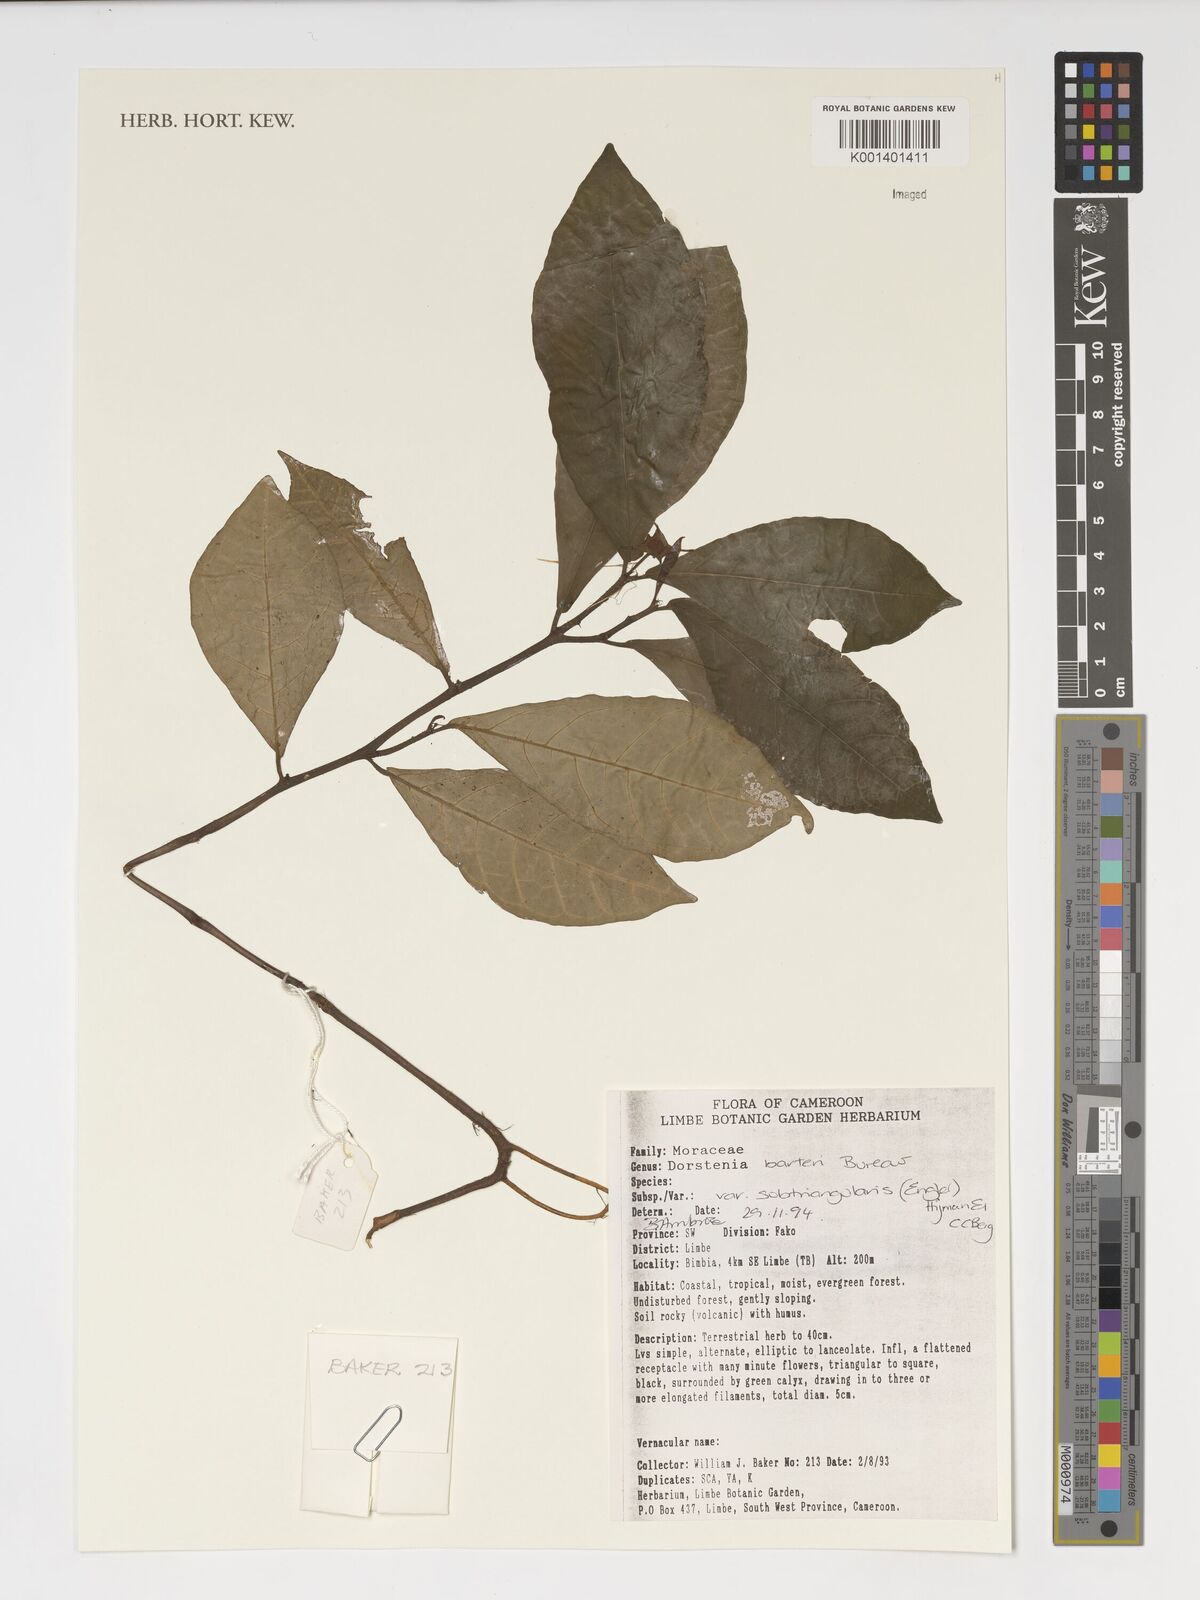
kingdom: Plantae
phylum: Tracheophyta
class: Magnoliopsida
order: Rosales
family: Moraceae
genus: Dorstenia
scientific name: Dorstenia barteri
